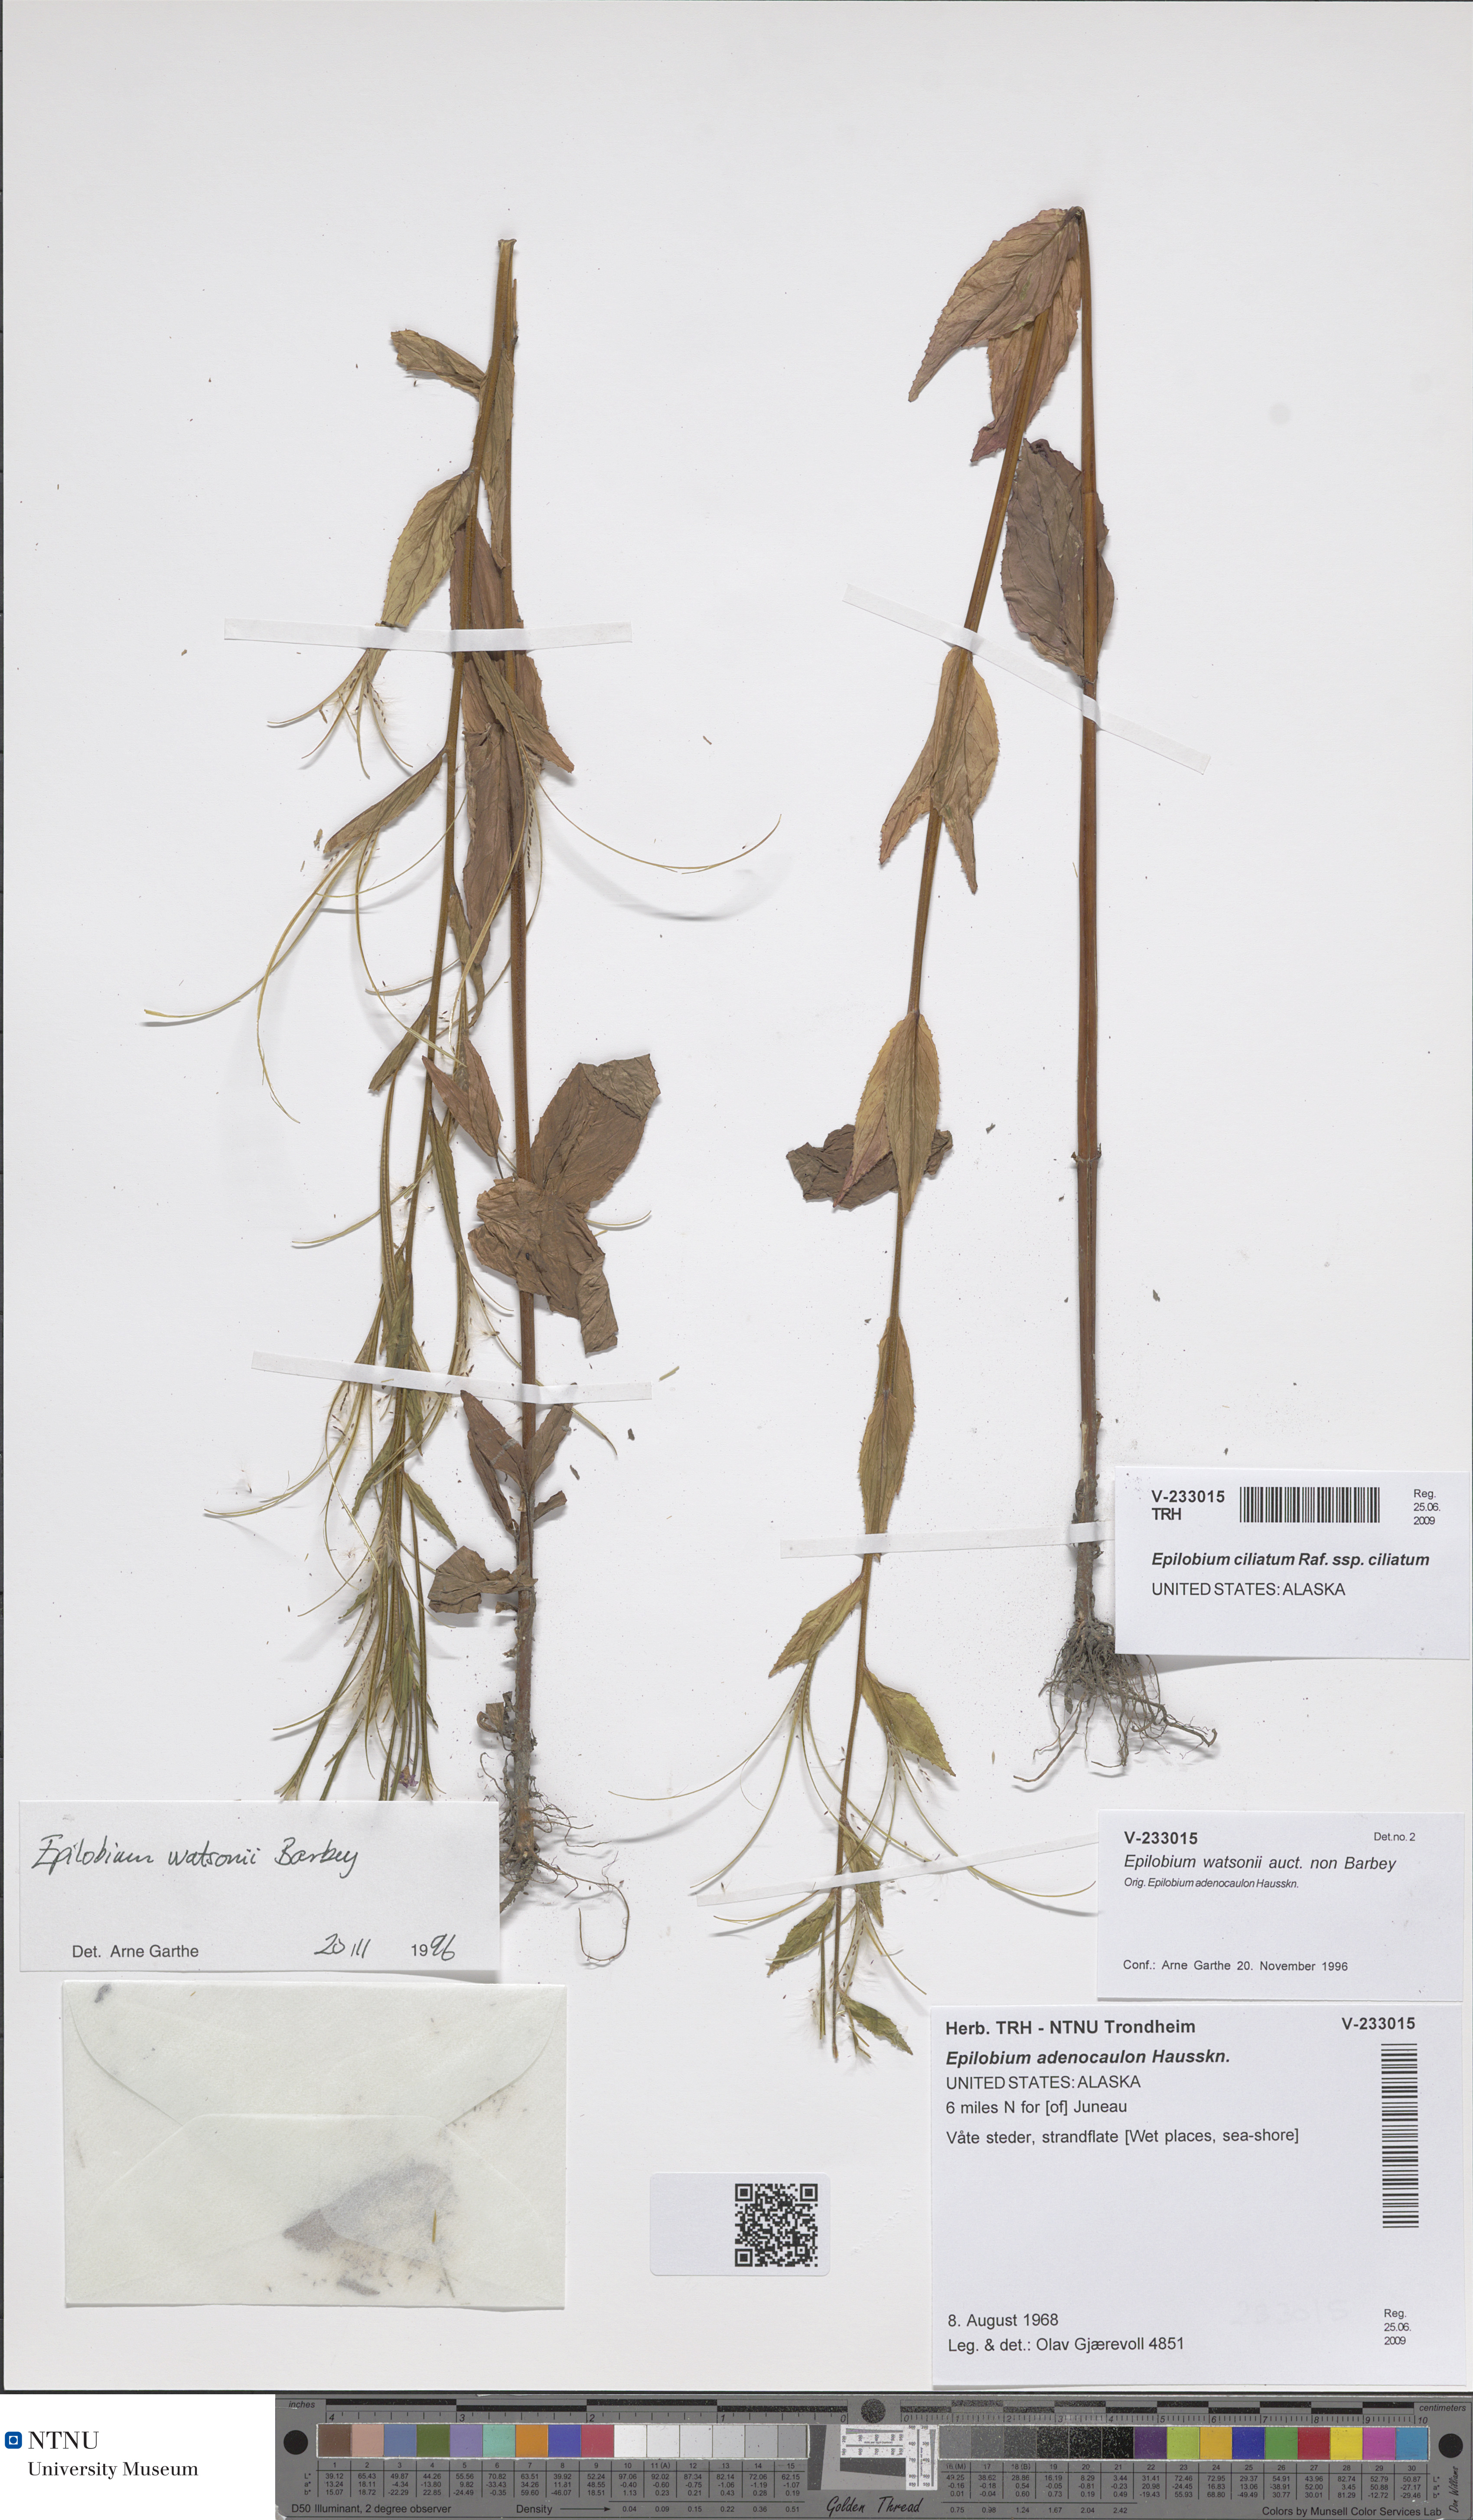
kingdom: Plantae
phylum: Tracheophyta
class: Magnoliopsida
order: Myrtales
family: Onagraceae
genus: Epilobium
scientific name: Epilobium ciliatum
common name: American willowherb
